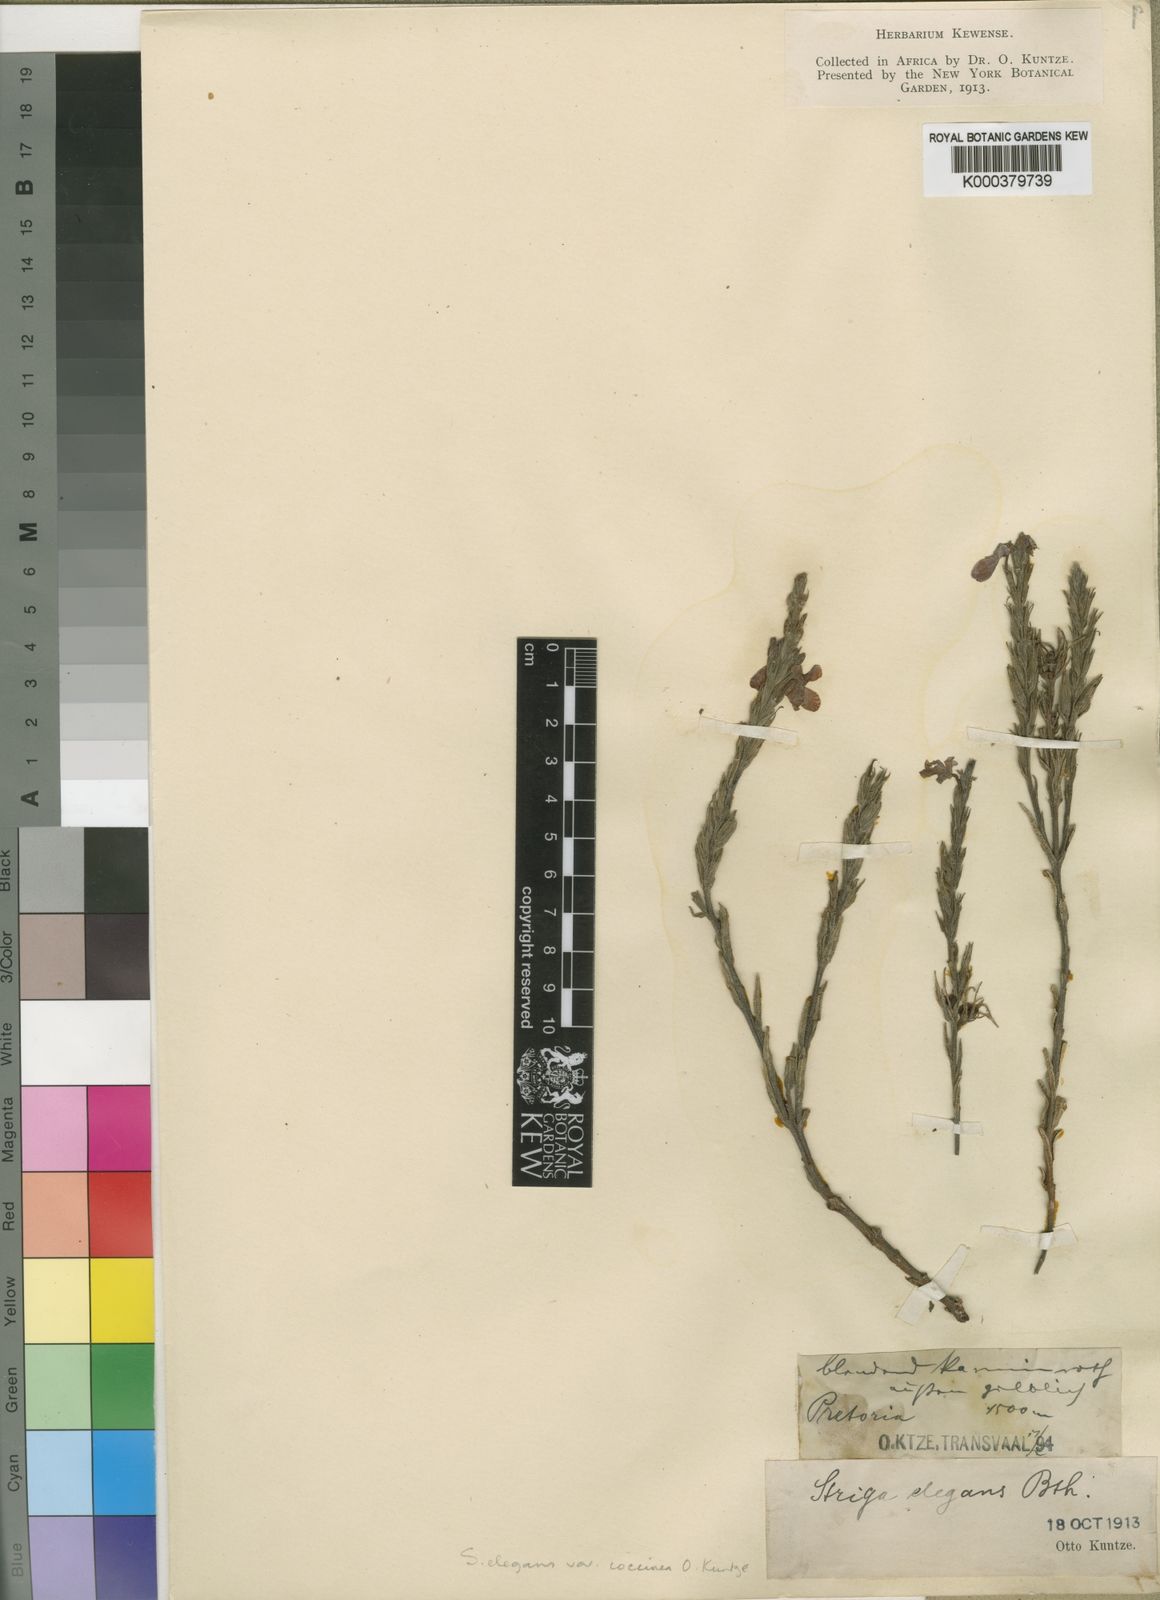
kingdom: Plantae
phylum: Tracheophyta
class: Magnoliopsida
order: Lamiales
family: Orobanchaceae
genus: Striga
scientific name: Striga elegans
